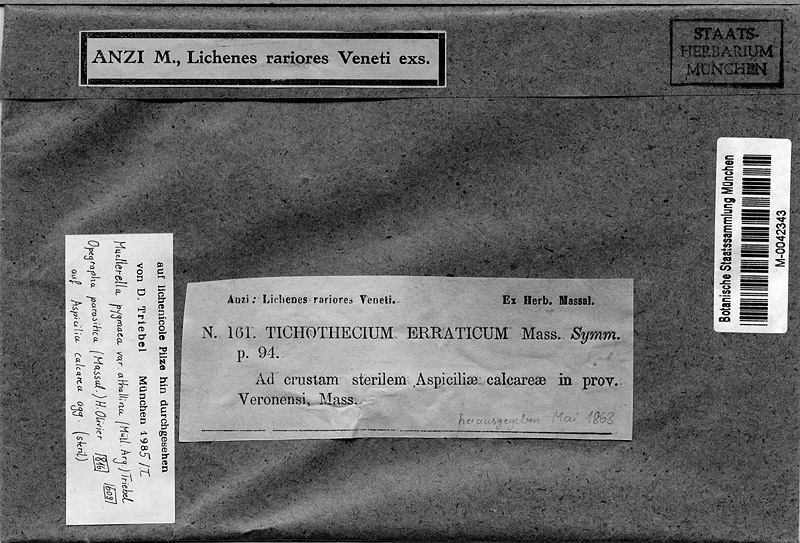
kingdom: Fungi
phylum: Ascomycota
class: Eurotiomycetes
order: Verrucariales
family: Verrucariaceae
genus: Muellerella
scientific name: Muellerella erratica
